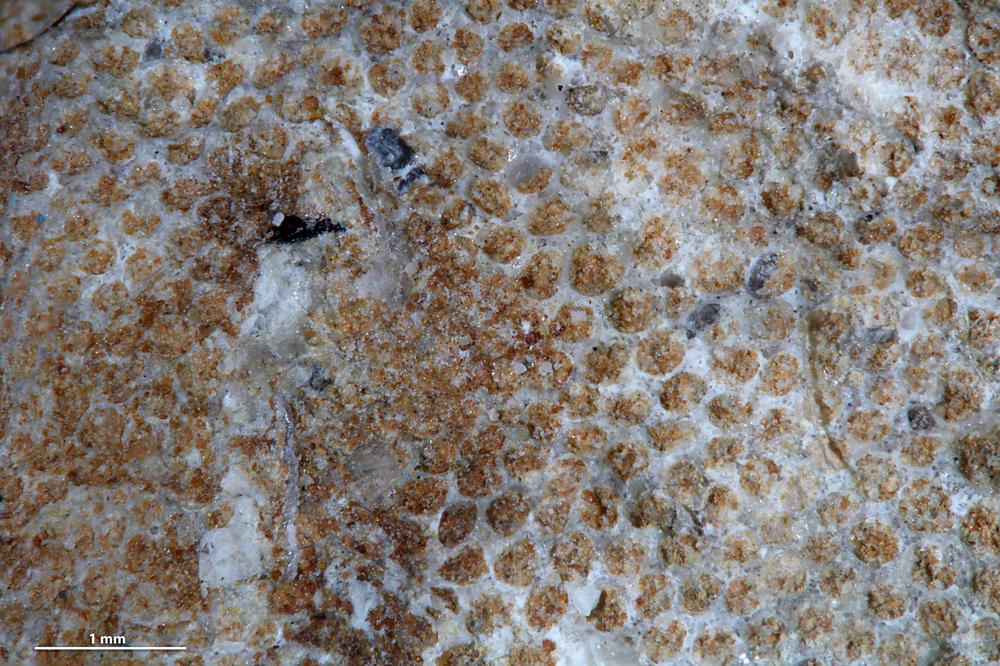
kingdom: Animalia
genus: Sanctum
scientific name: Sanctum
